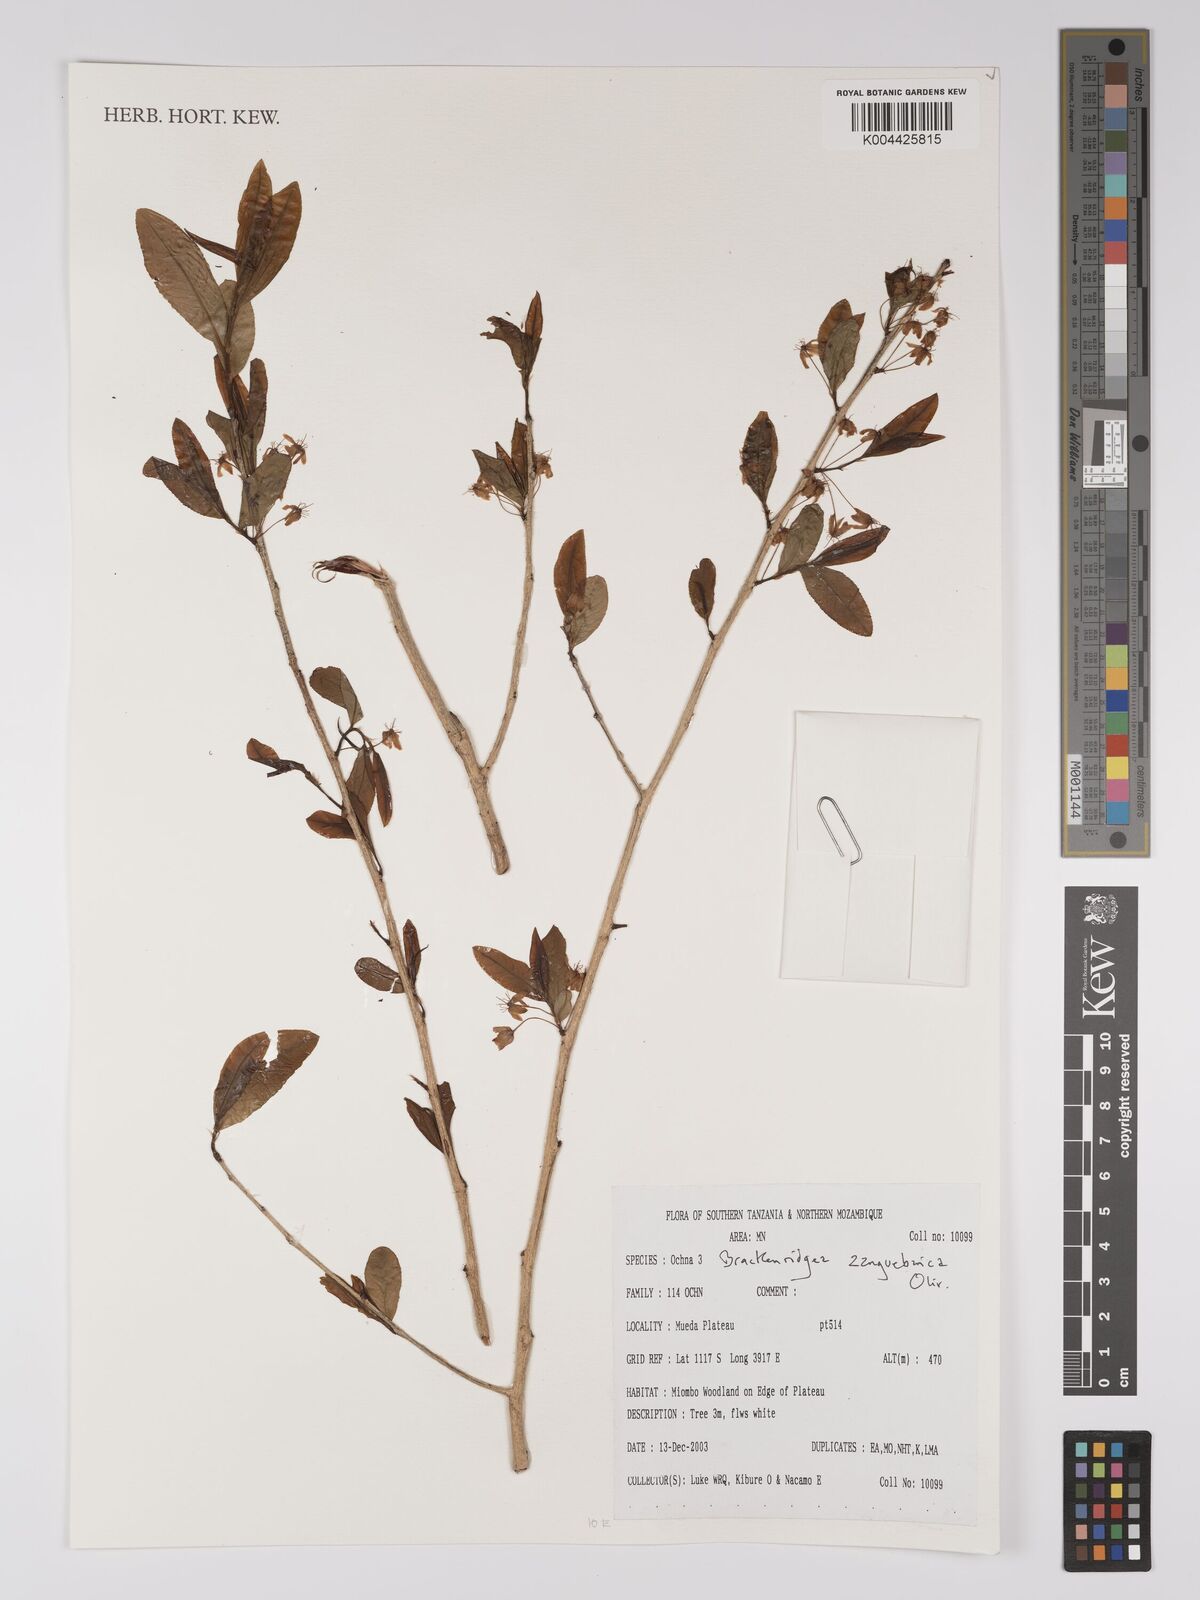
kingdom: Plantae
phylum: Tracheophyta
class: Magnoliopsida
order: Malpighiales
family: Ochnaceae
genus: Brackenridgea
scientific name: Brackenridgea zanguebarica
